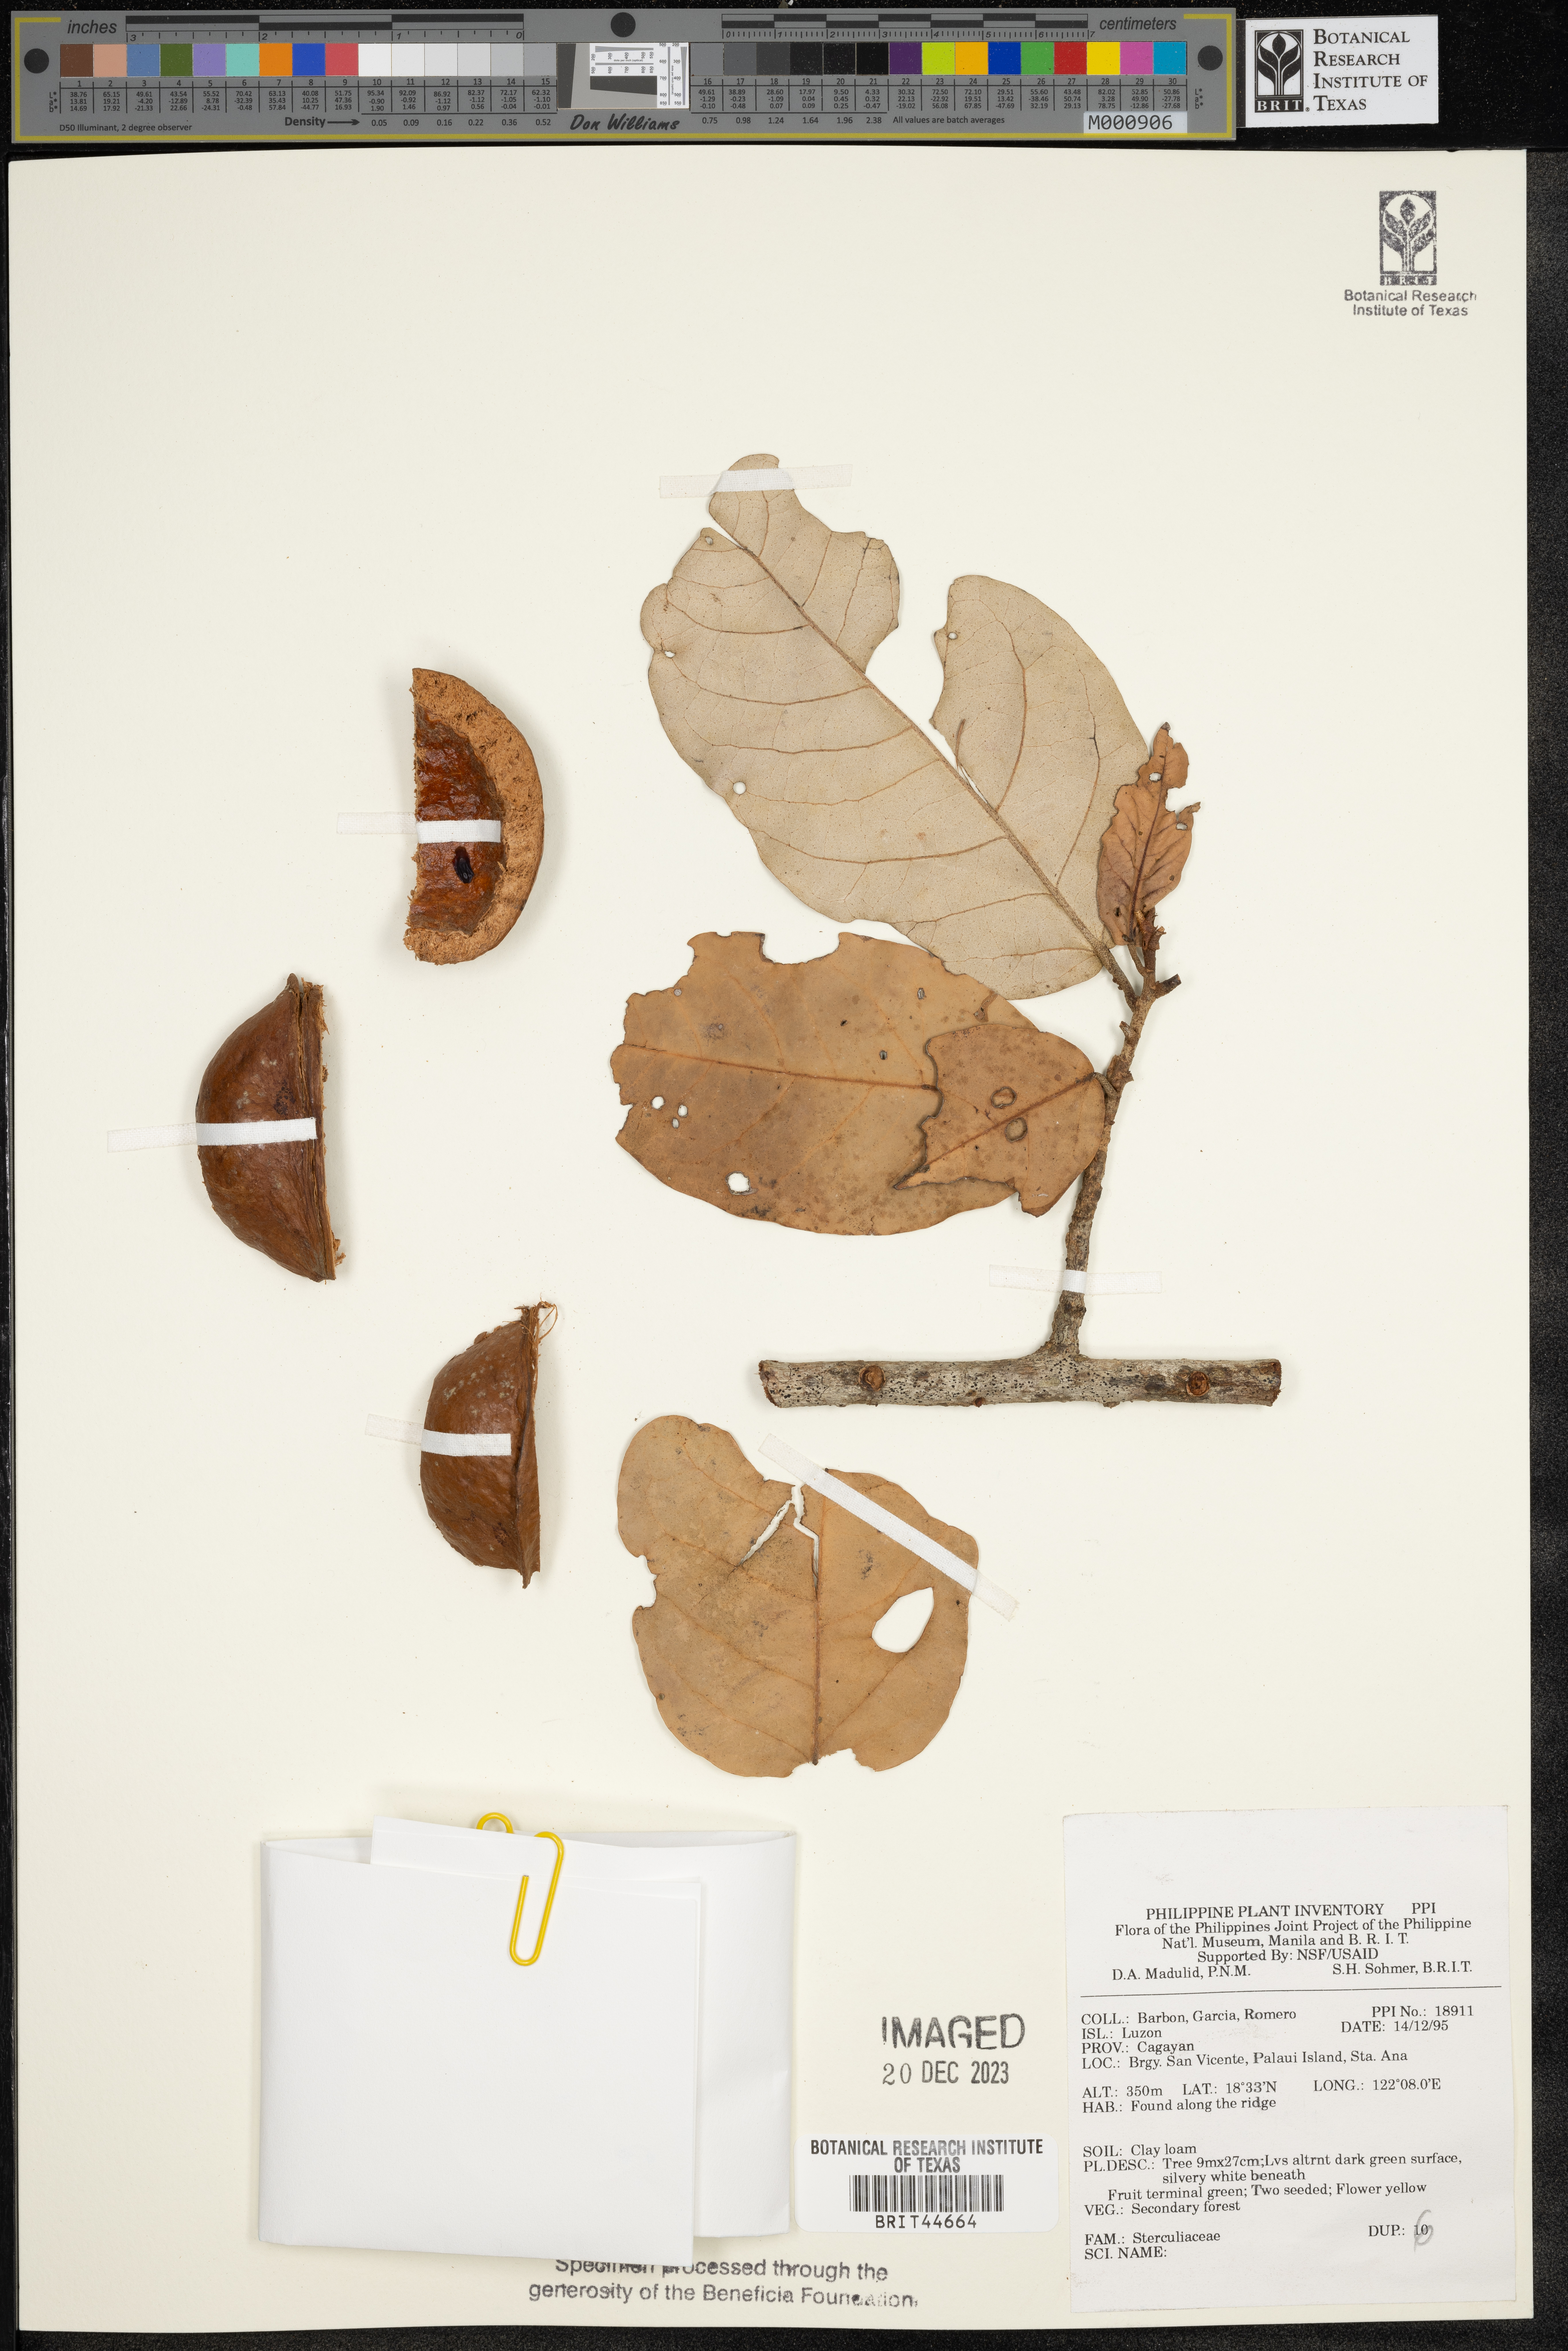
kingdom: Plantae
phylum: Tracheophyta
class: Magnoliopsida
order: Malvales
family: Sterculiaceae
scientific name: Sterculiaceae
